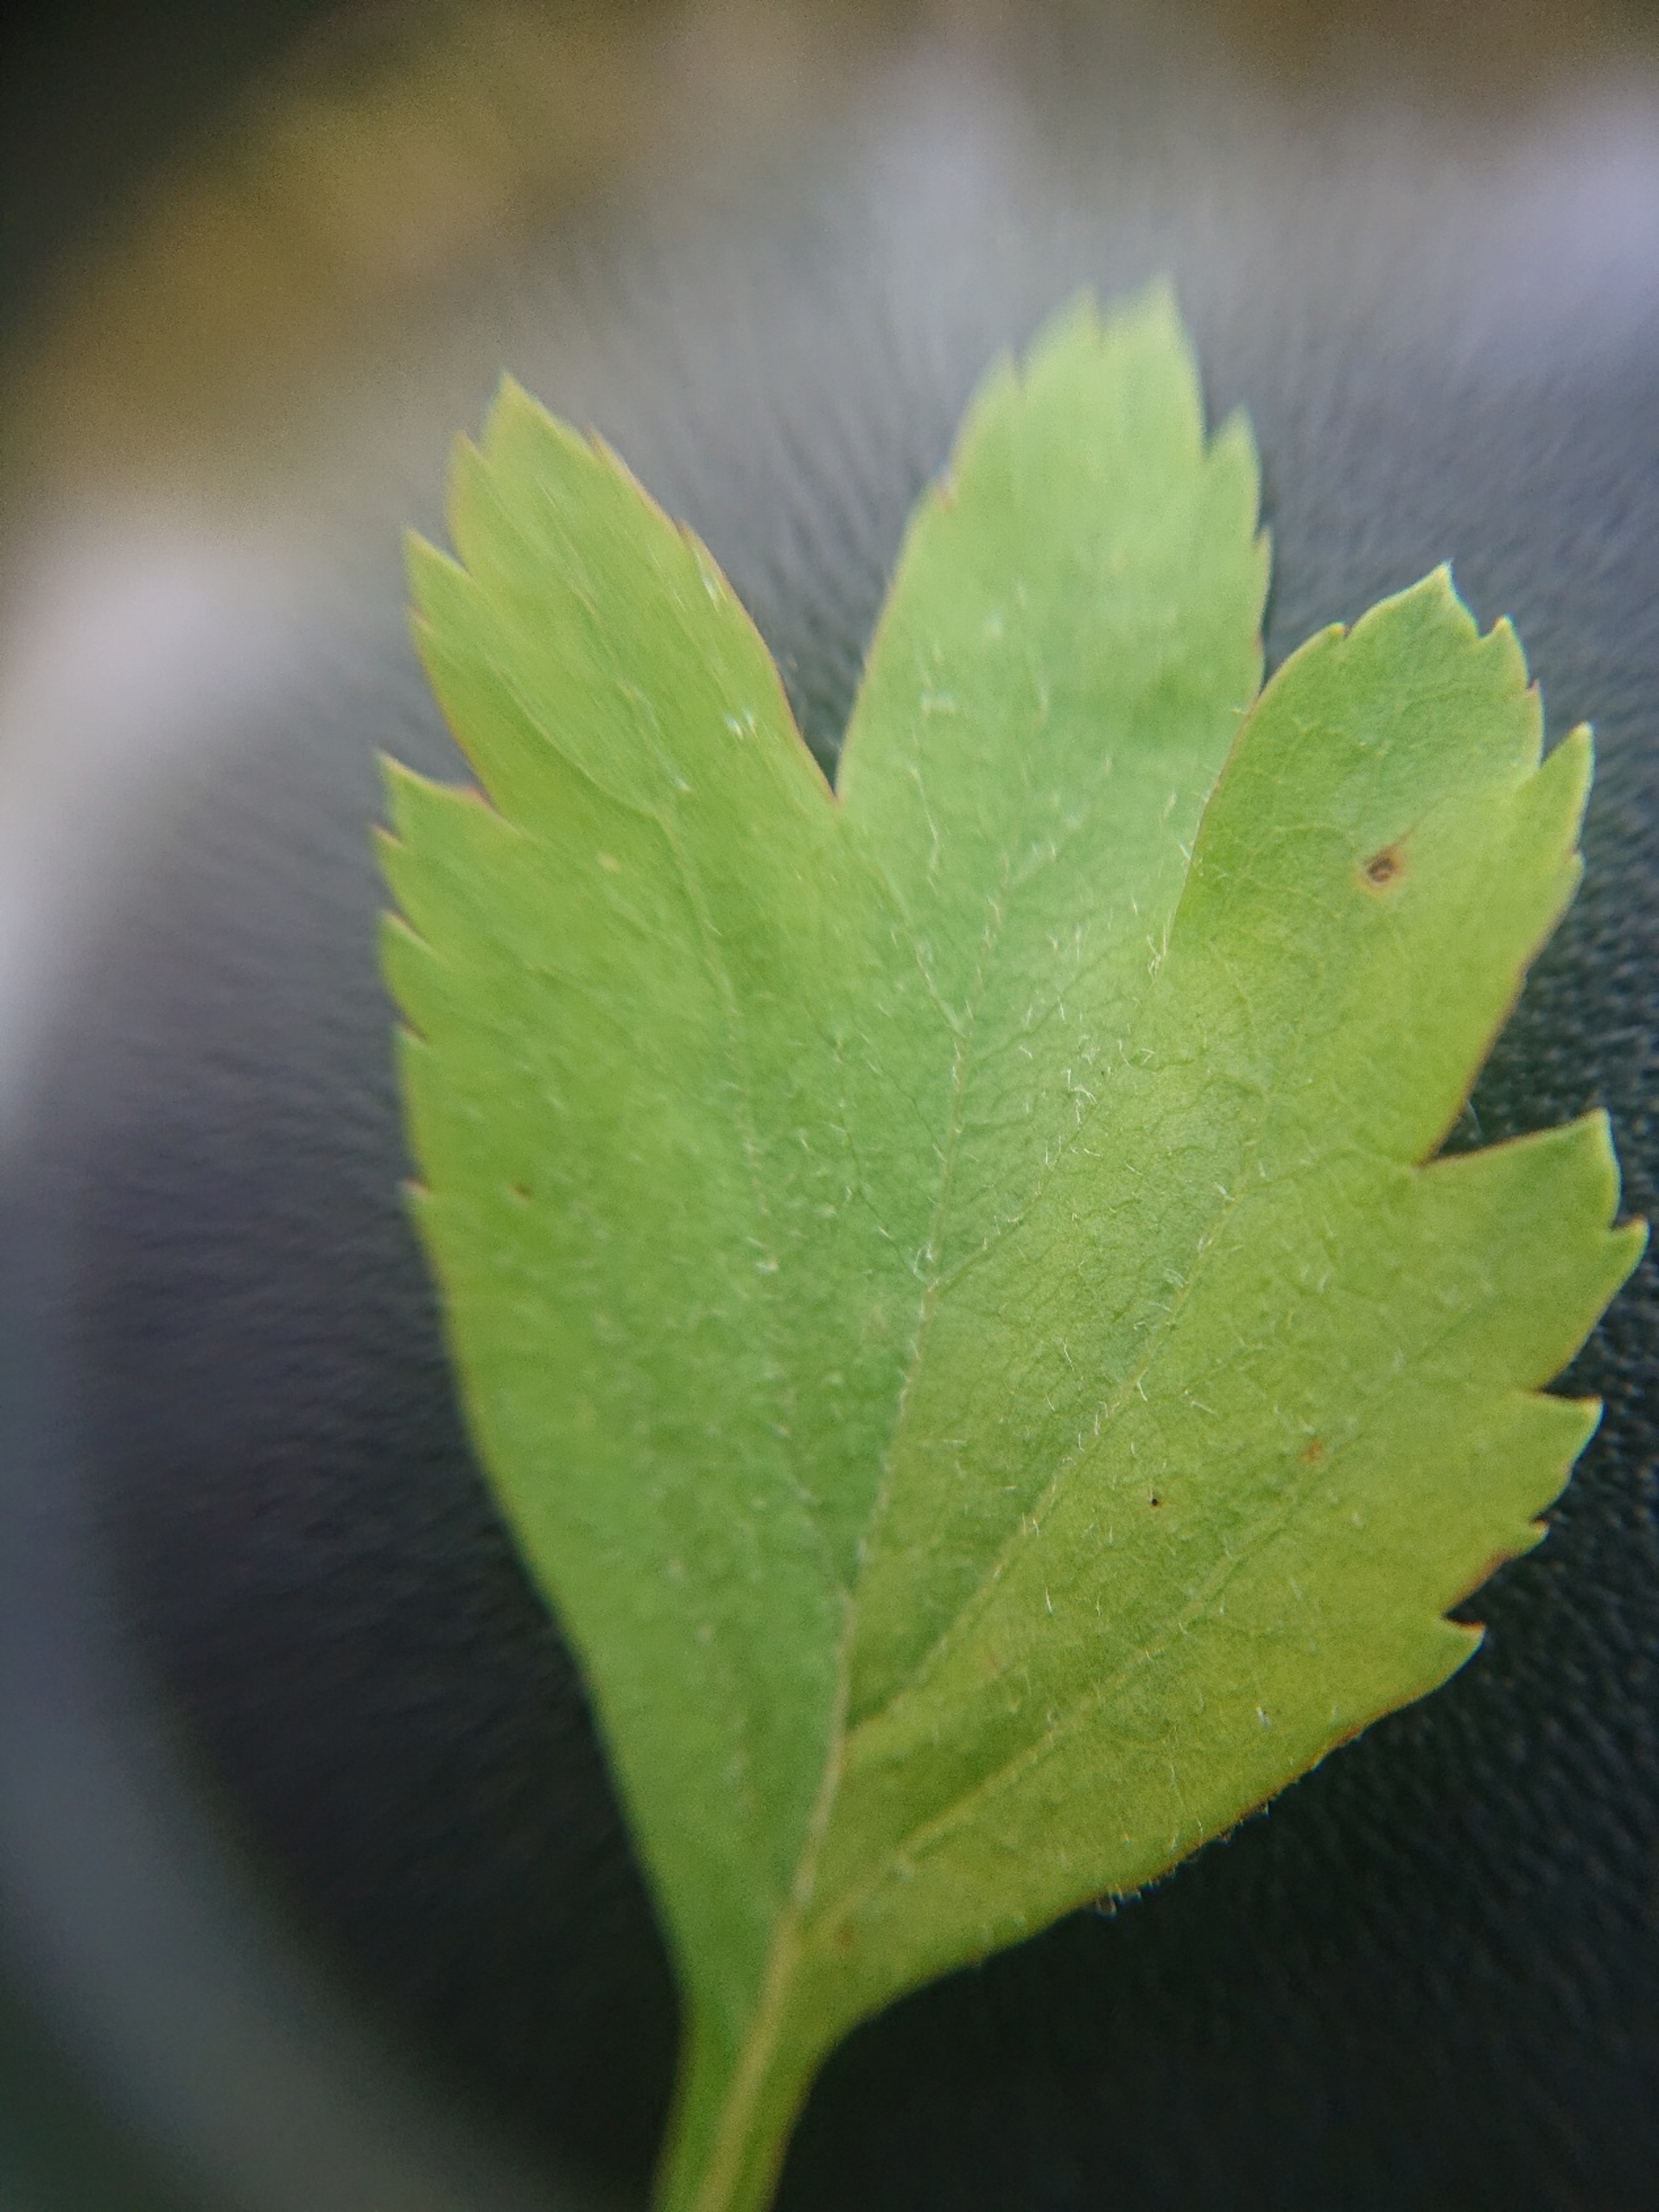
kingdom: Plantae
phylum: Tracheophyta
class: Magnoliopsida
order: Rosales
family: Rosaceae
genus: Crataegus
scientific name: Crataegus laevigata
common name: Almindelig hvidtjørn
